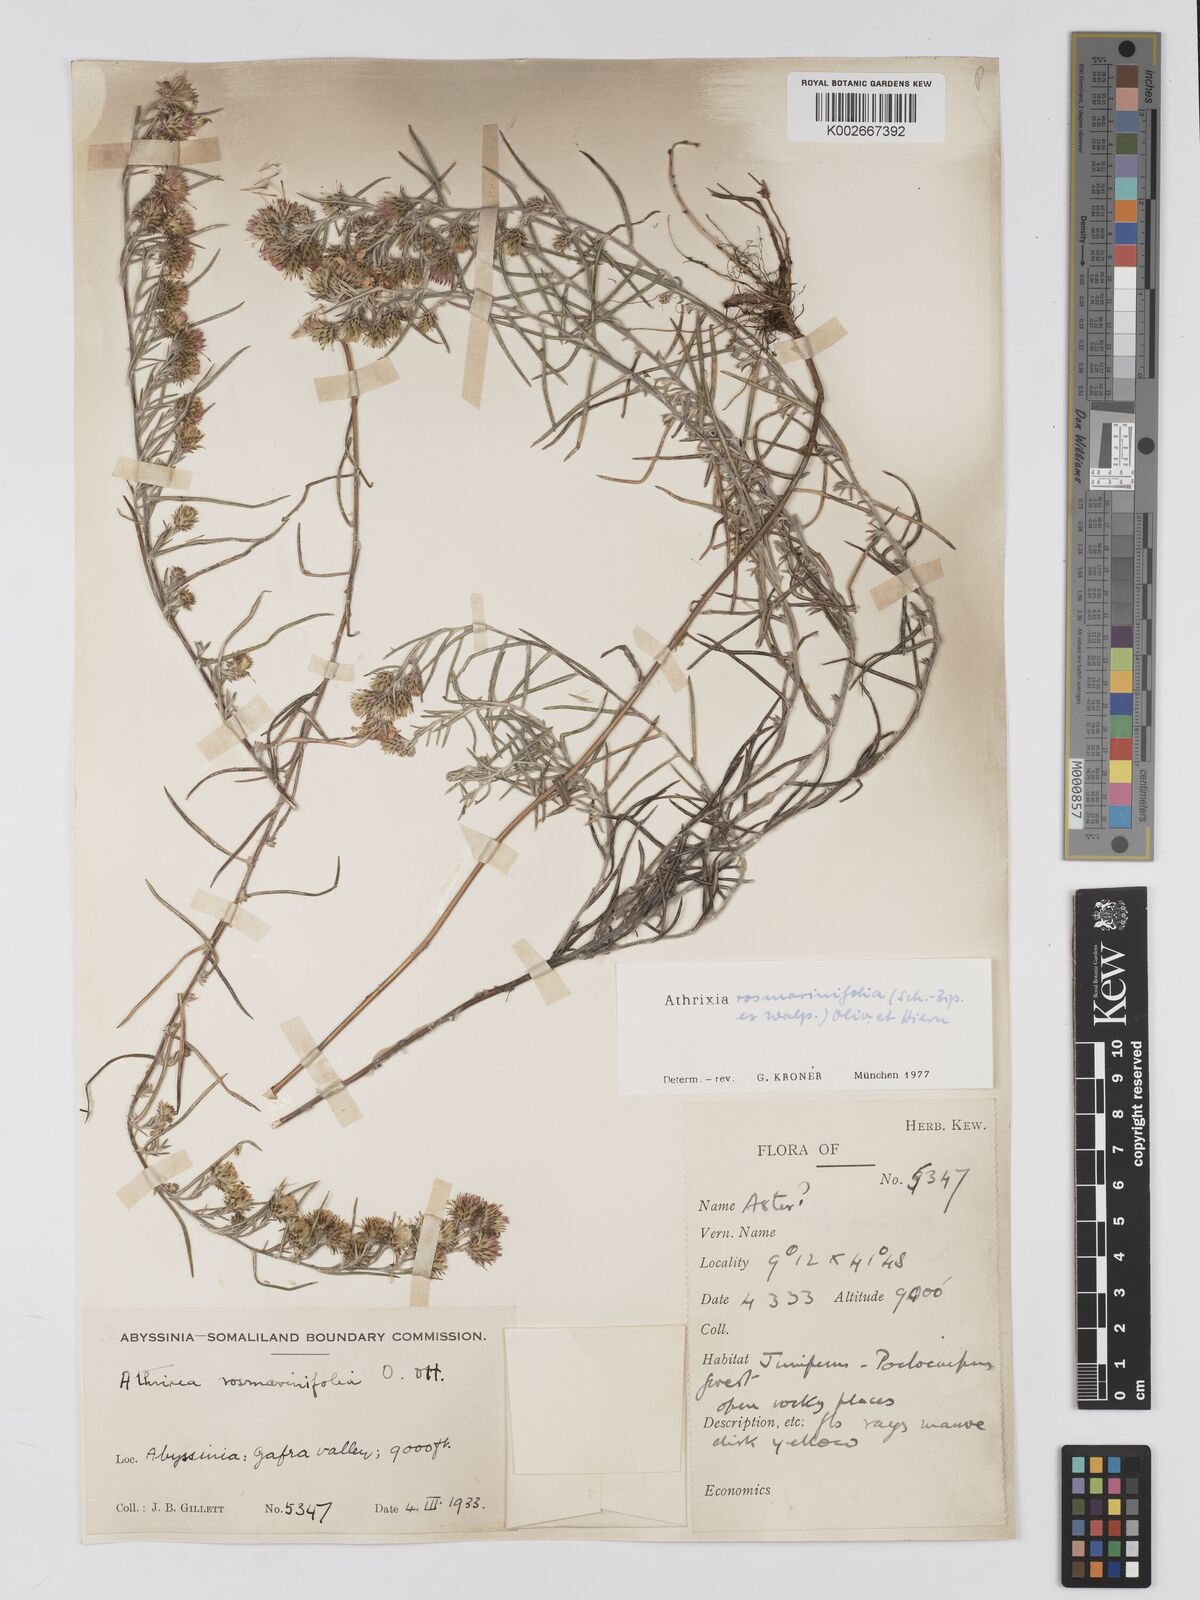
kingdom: Plantae
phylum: Tracheophyta
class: Magnoliopsida
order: Asterales
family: Asteraceae
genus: Athrixia
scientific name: Athrixia rosmarinifolia
